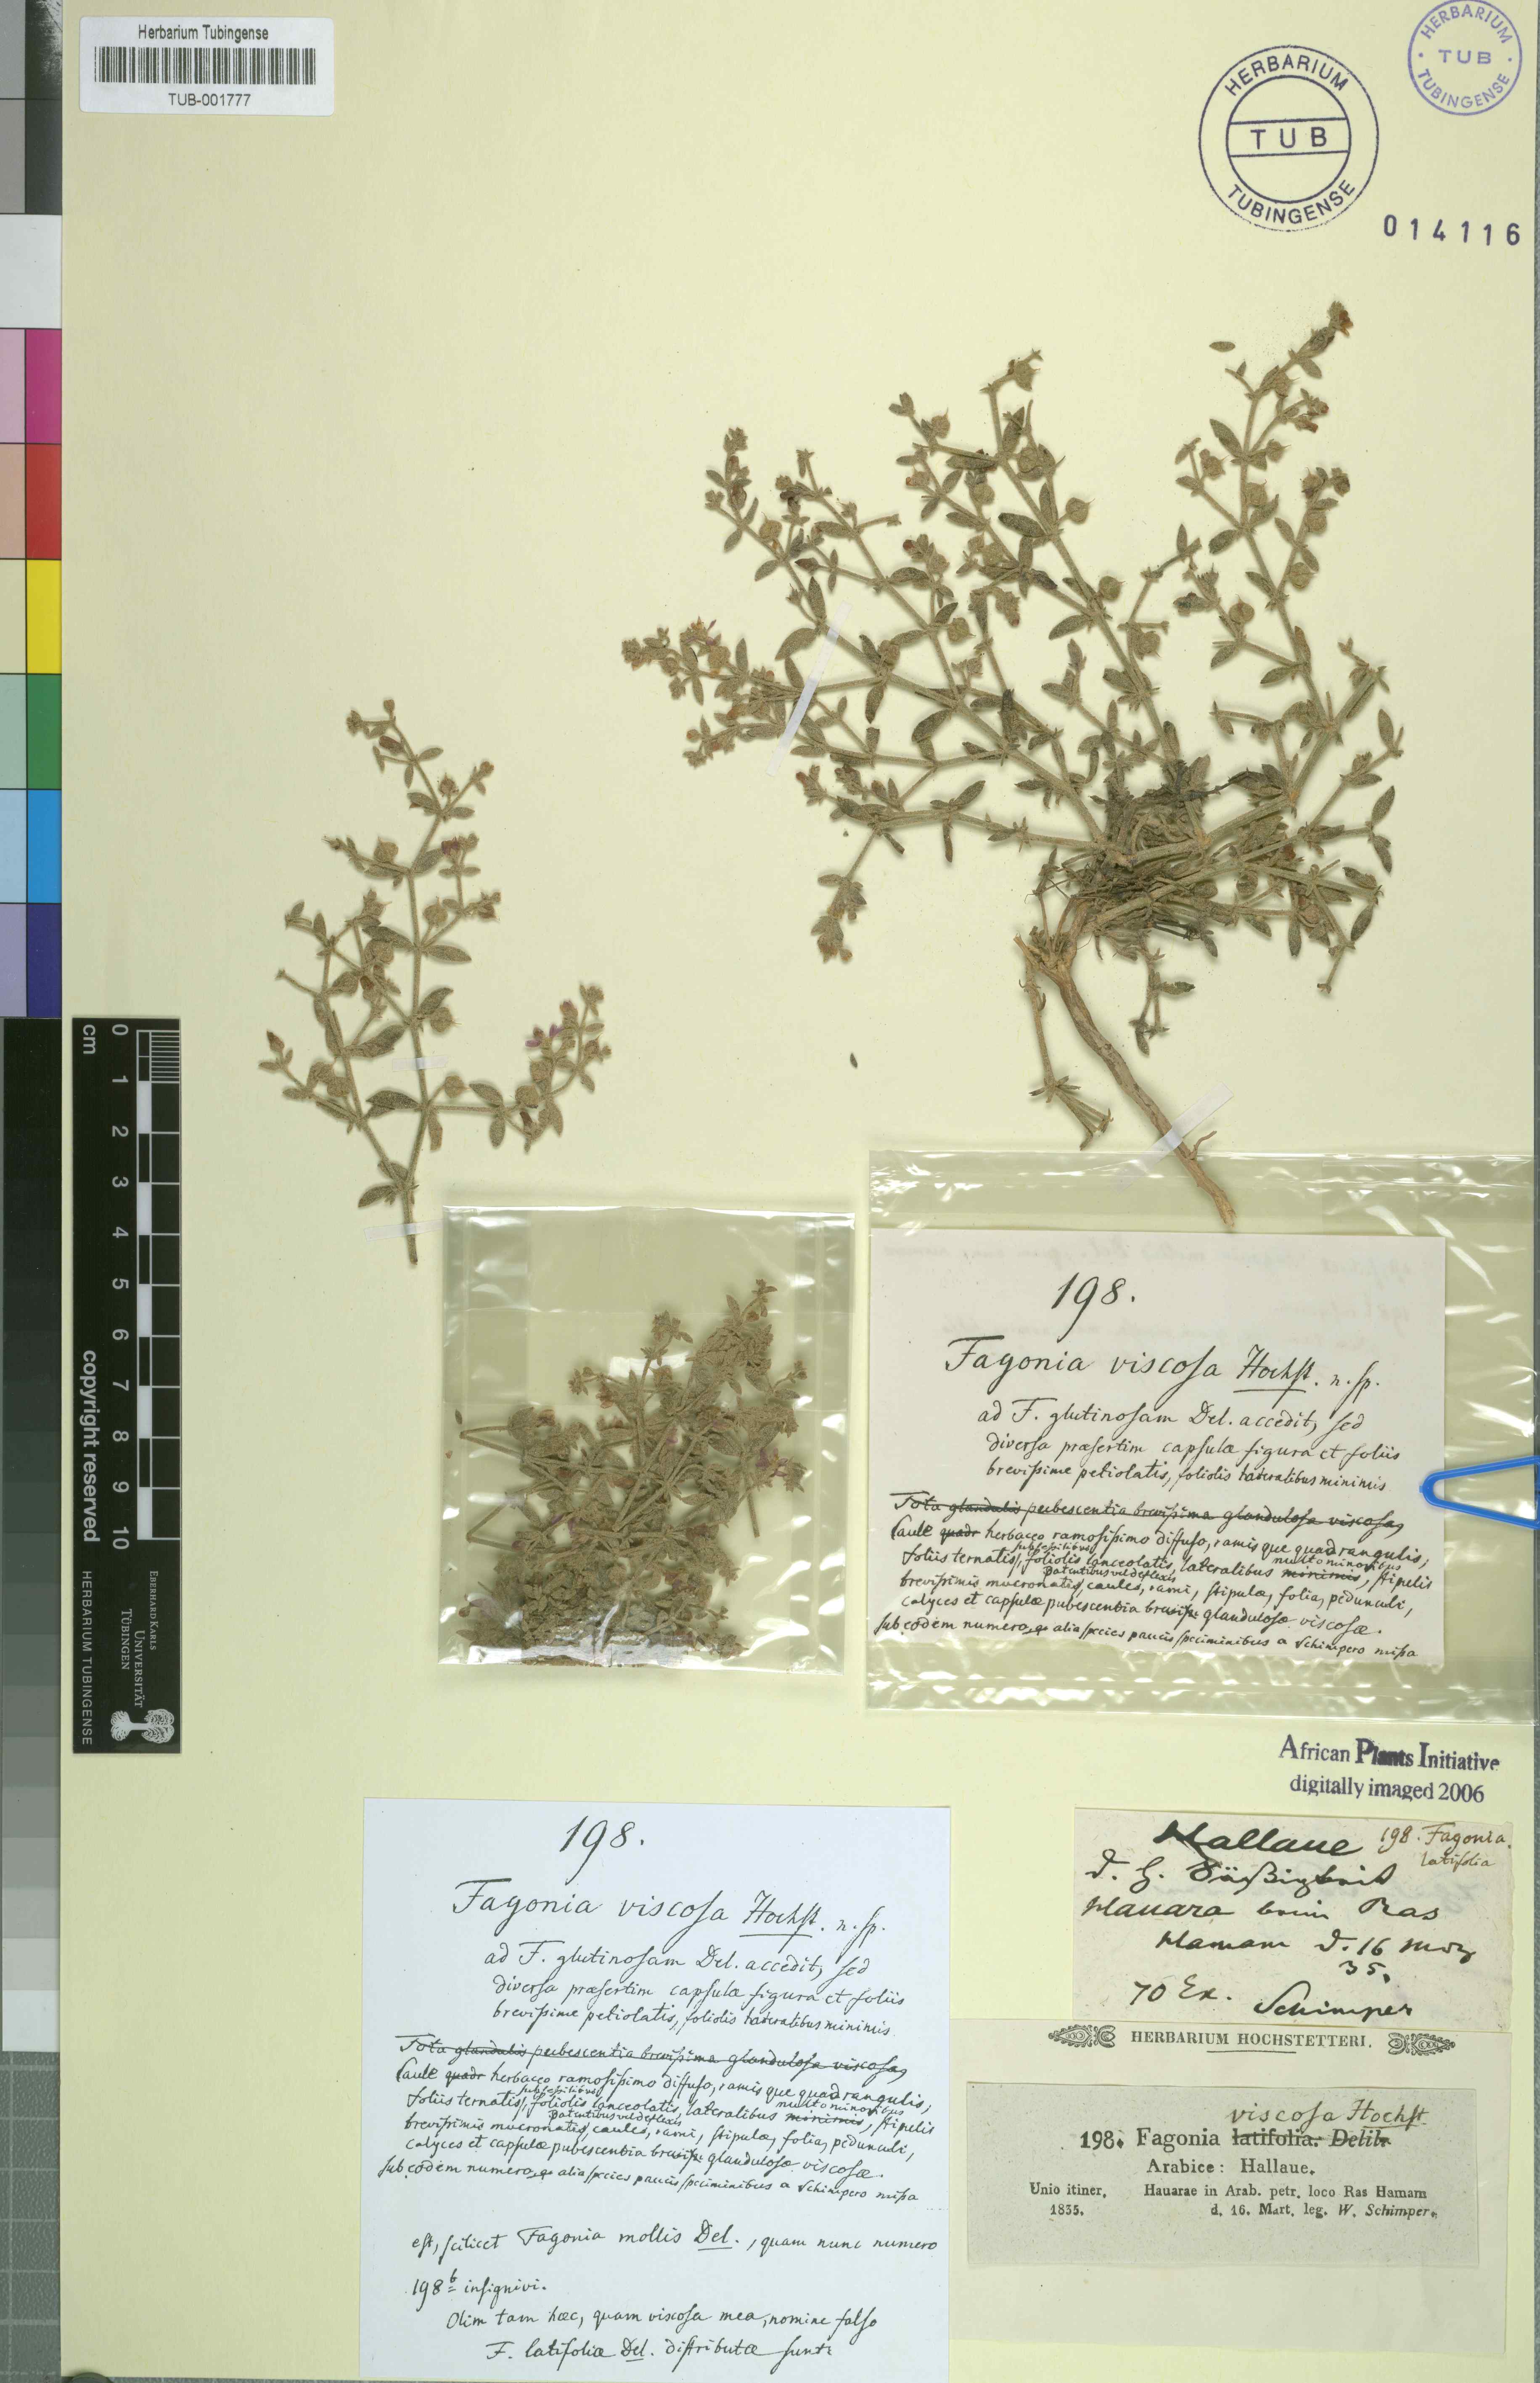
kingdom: Plantae
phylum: Tracheophyta
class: Magnoliopsida
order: Zygophyllales
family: Zygophyllaceae
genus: Fagonia
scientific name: Fagonia cretica
